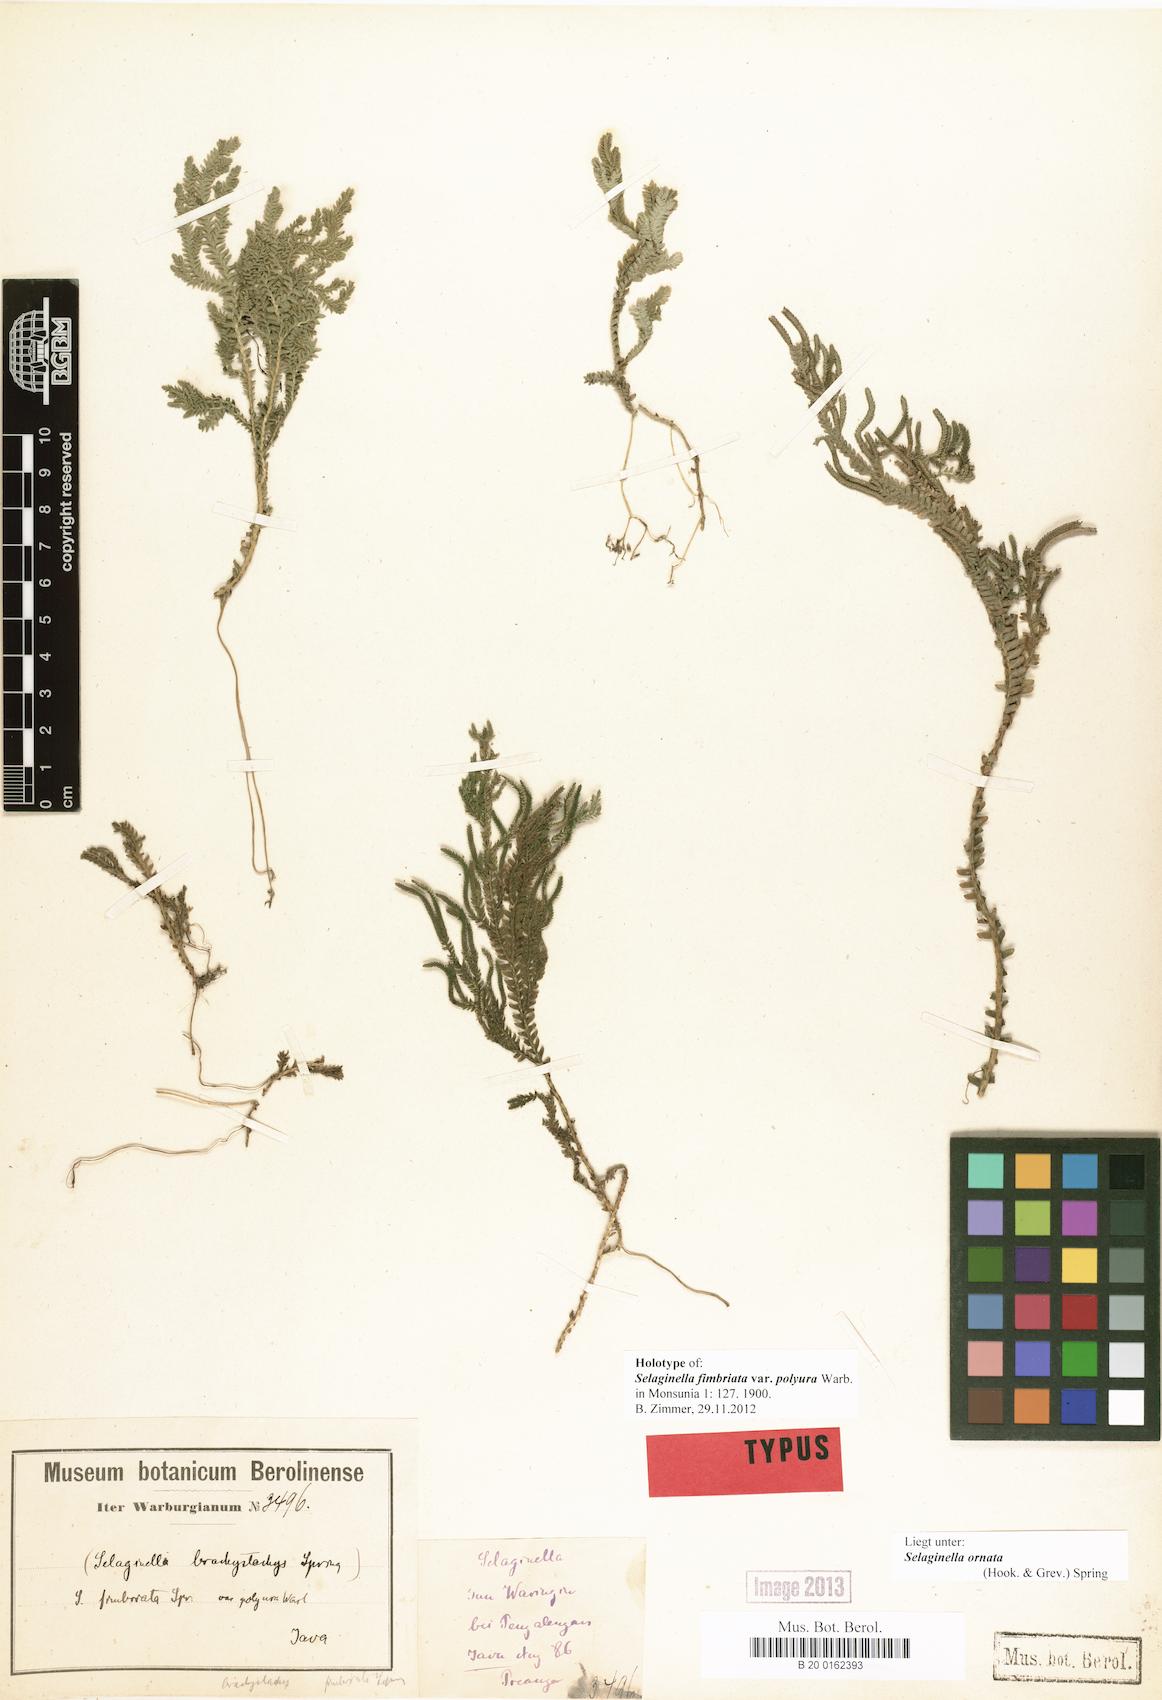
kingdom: Plantae
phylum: Tracheophyta
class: Lycopodiopsida
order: Selaginellales
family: Selaginellaceae
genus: Selaginella
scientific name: Selaginella ornata
